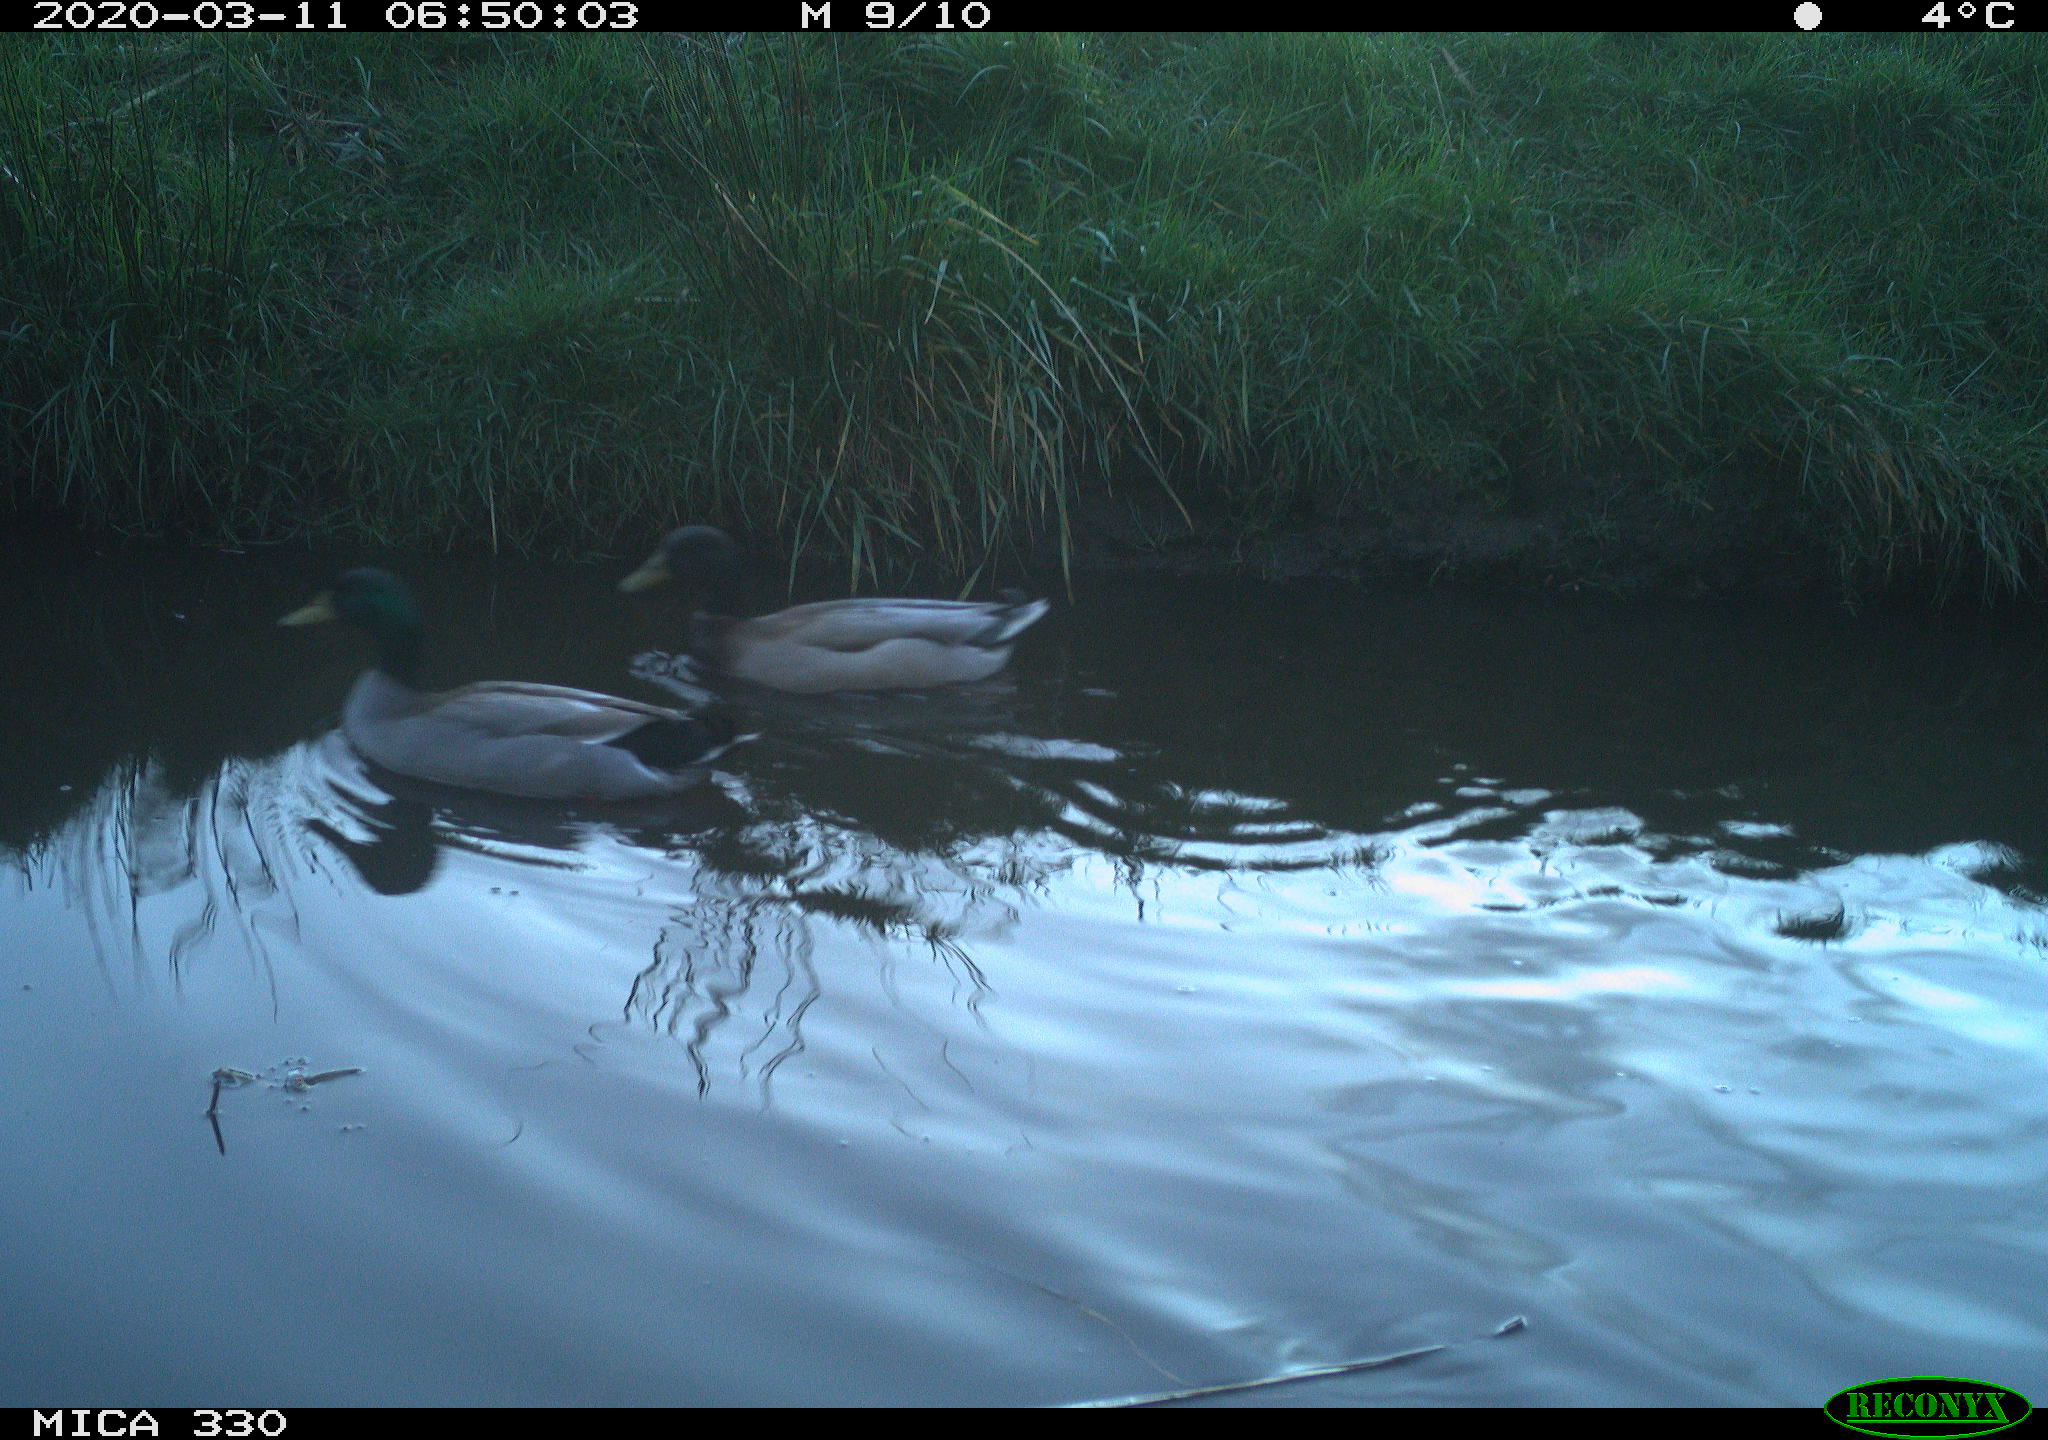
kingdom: Animalia
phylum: Chordata
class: Aves
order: Anseriformes
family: Anatidae
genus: Anas
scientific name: Anas platyrhynchos
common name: Mallard
